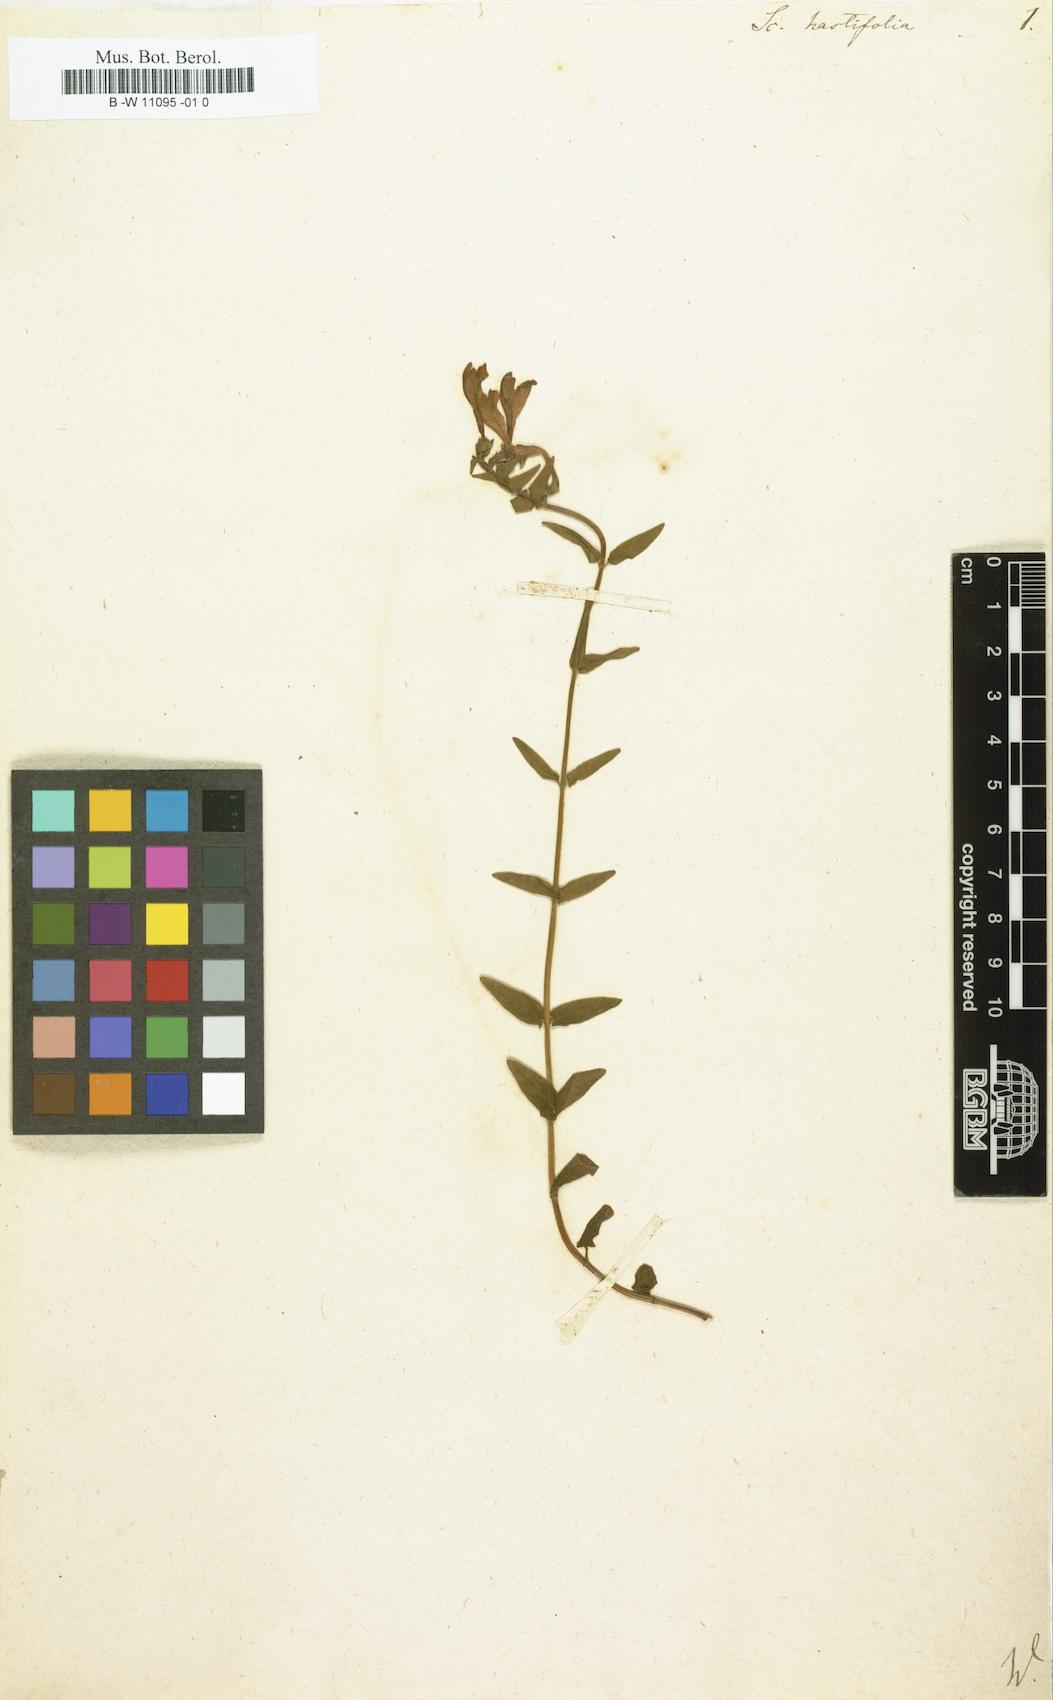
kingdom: Plantae
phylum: Tracheophyta
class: Magnoliopsida
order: Lamiales
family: Lamiaceae
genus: Scutellaria
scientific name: Scutellaria hastifolia
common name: Norfolk skullcap
